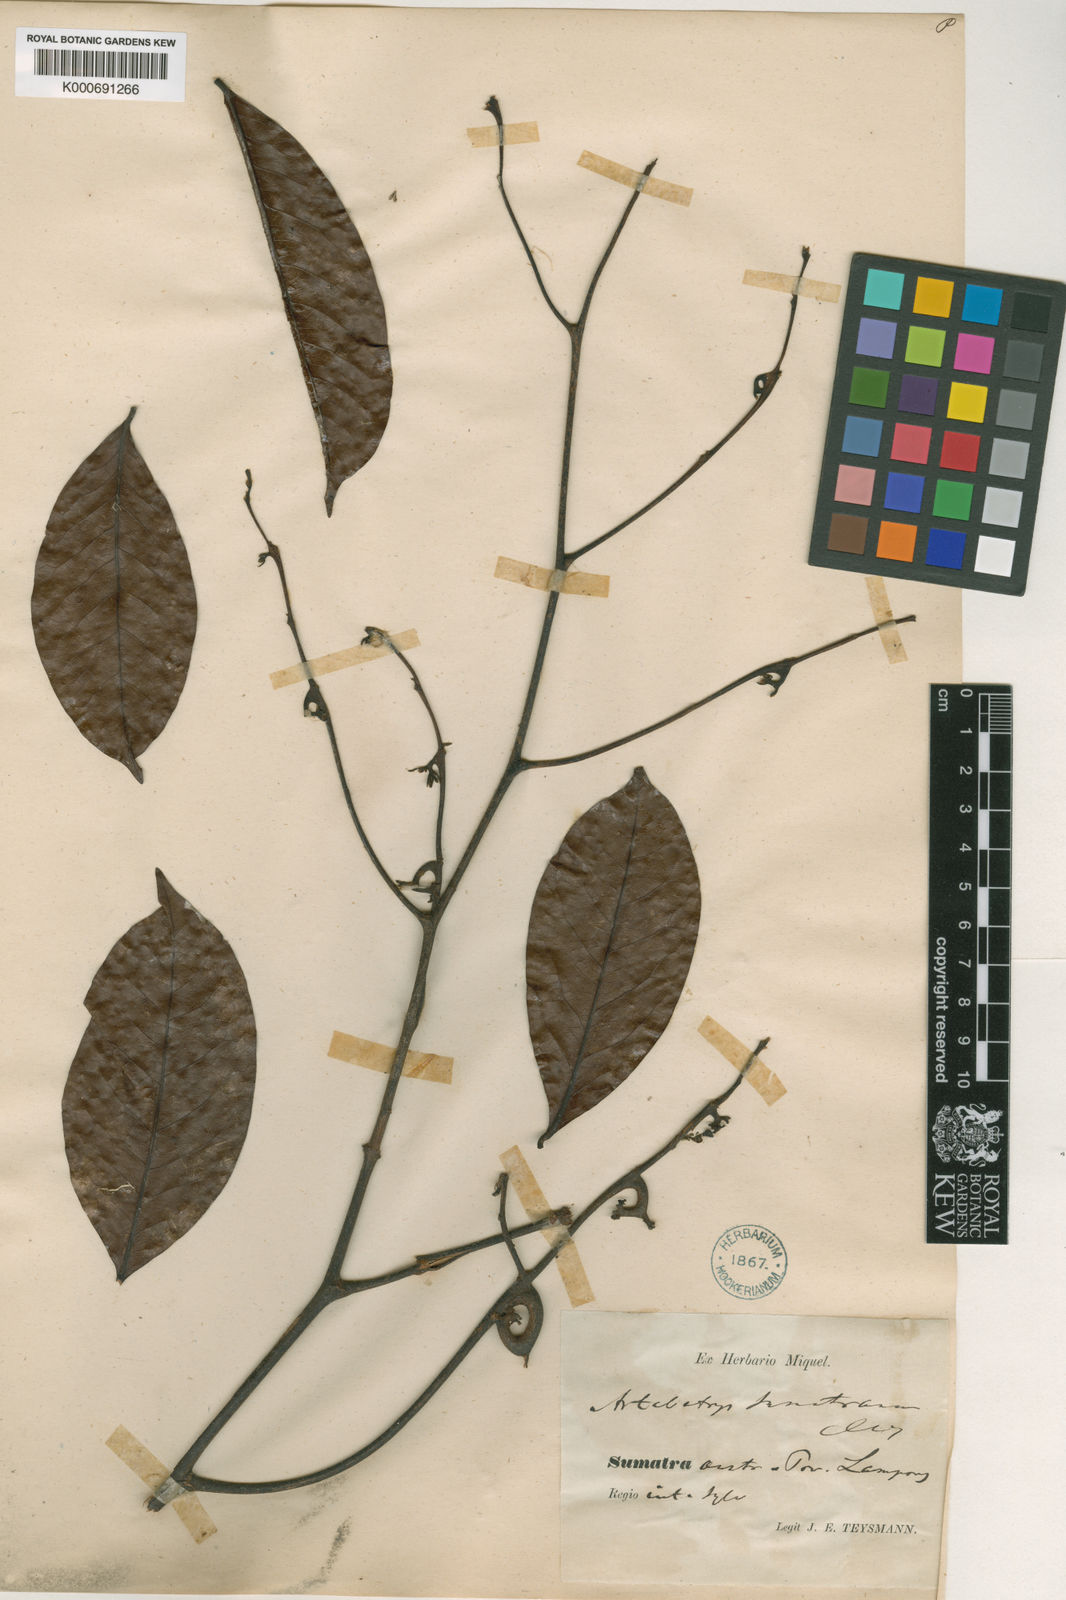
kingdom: Plantae
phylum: Tracheophyta
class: Magnoliopsida
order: Magnoliales
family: Annonaceae
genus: Artabotrys
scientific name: Artabotrys sumatranus
